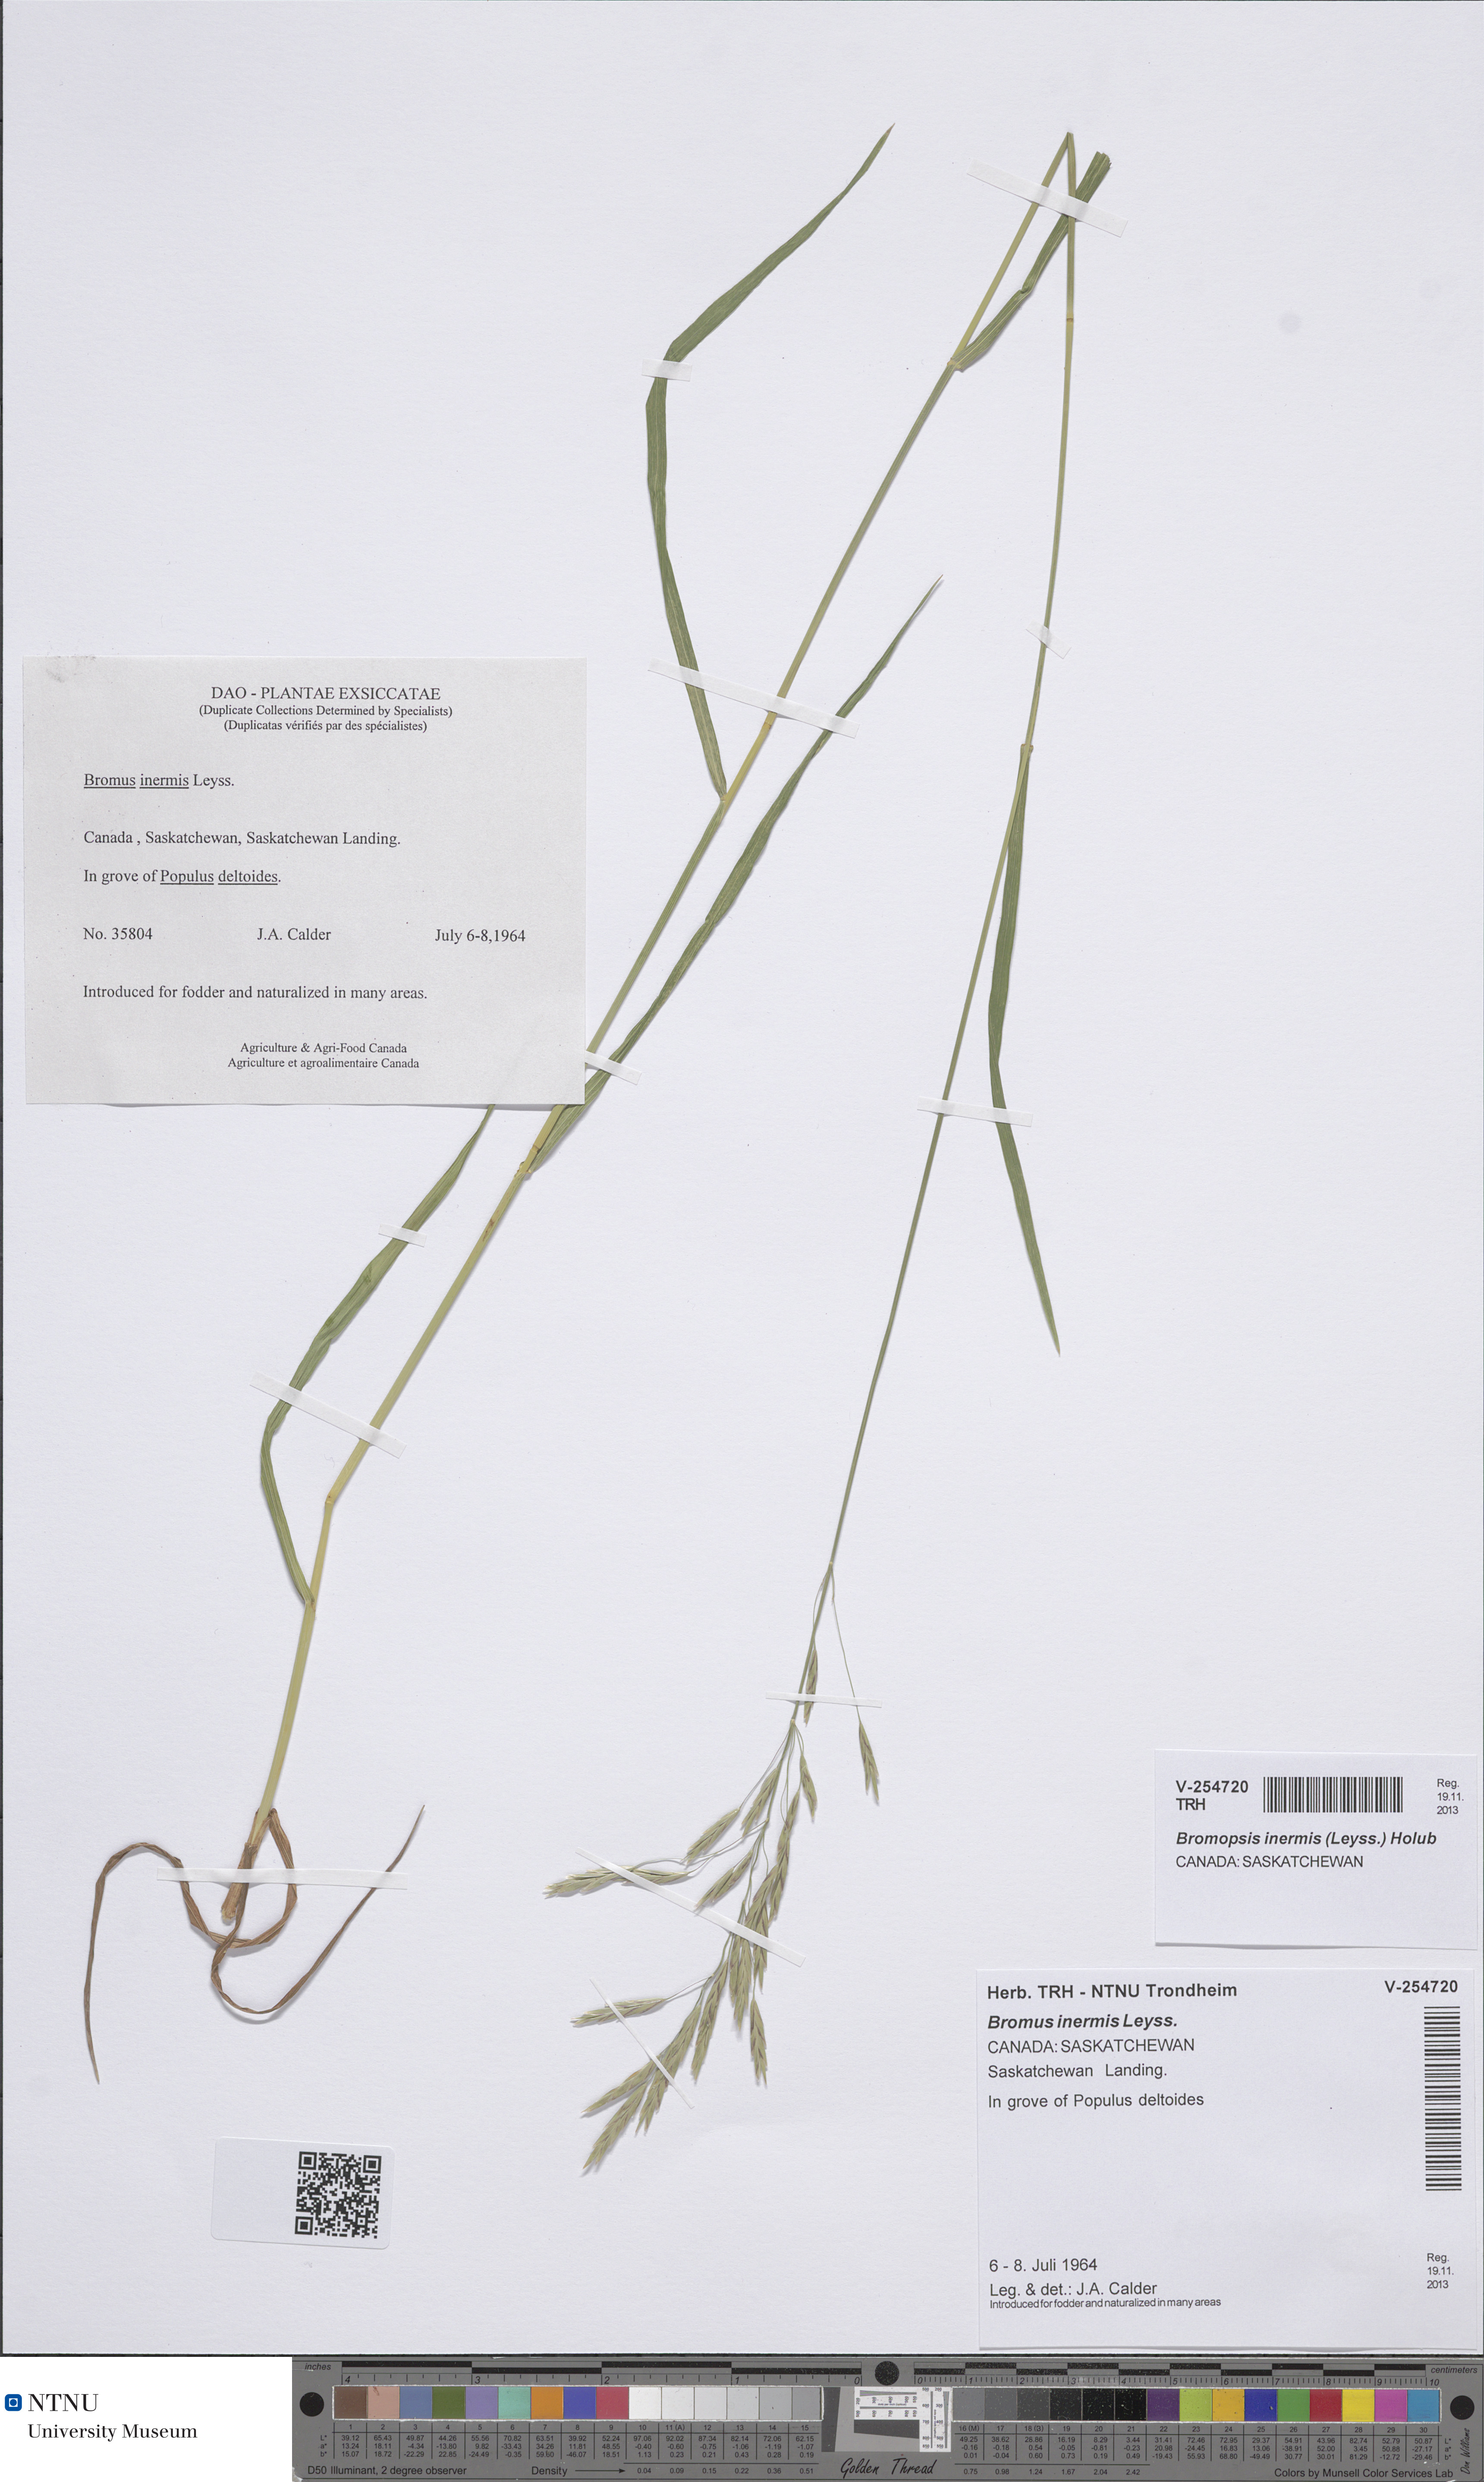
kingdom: Plantae
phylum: Tracheophyta
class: Liliopsida
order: Poales
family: Poaceae
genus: Bromus
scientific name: Bromus inermis
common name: Smooth brome
